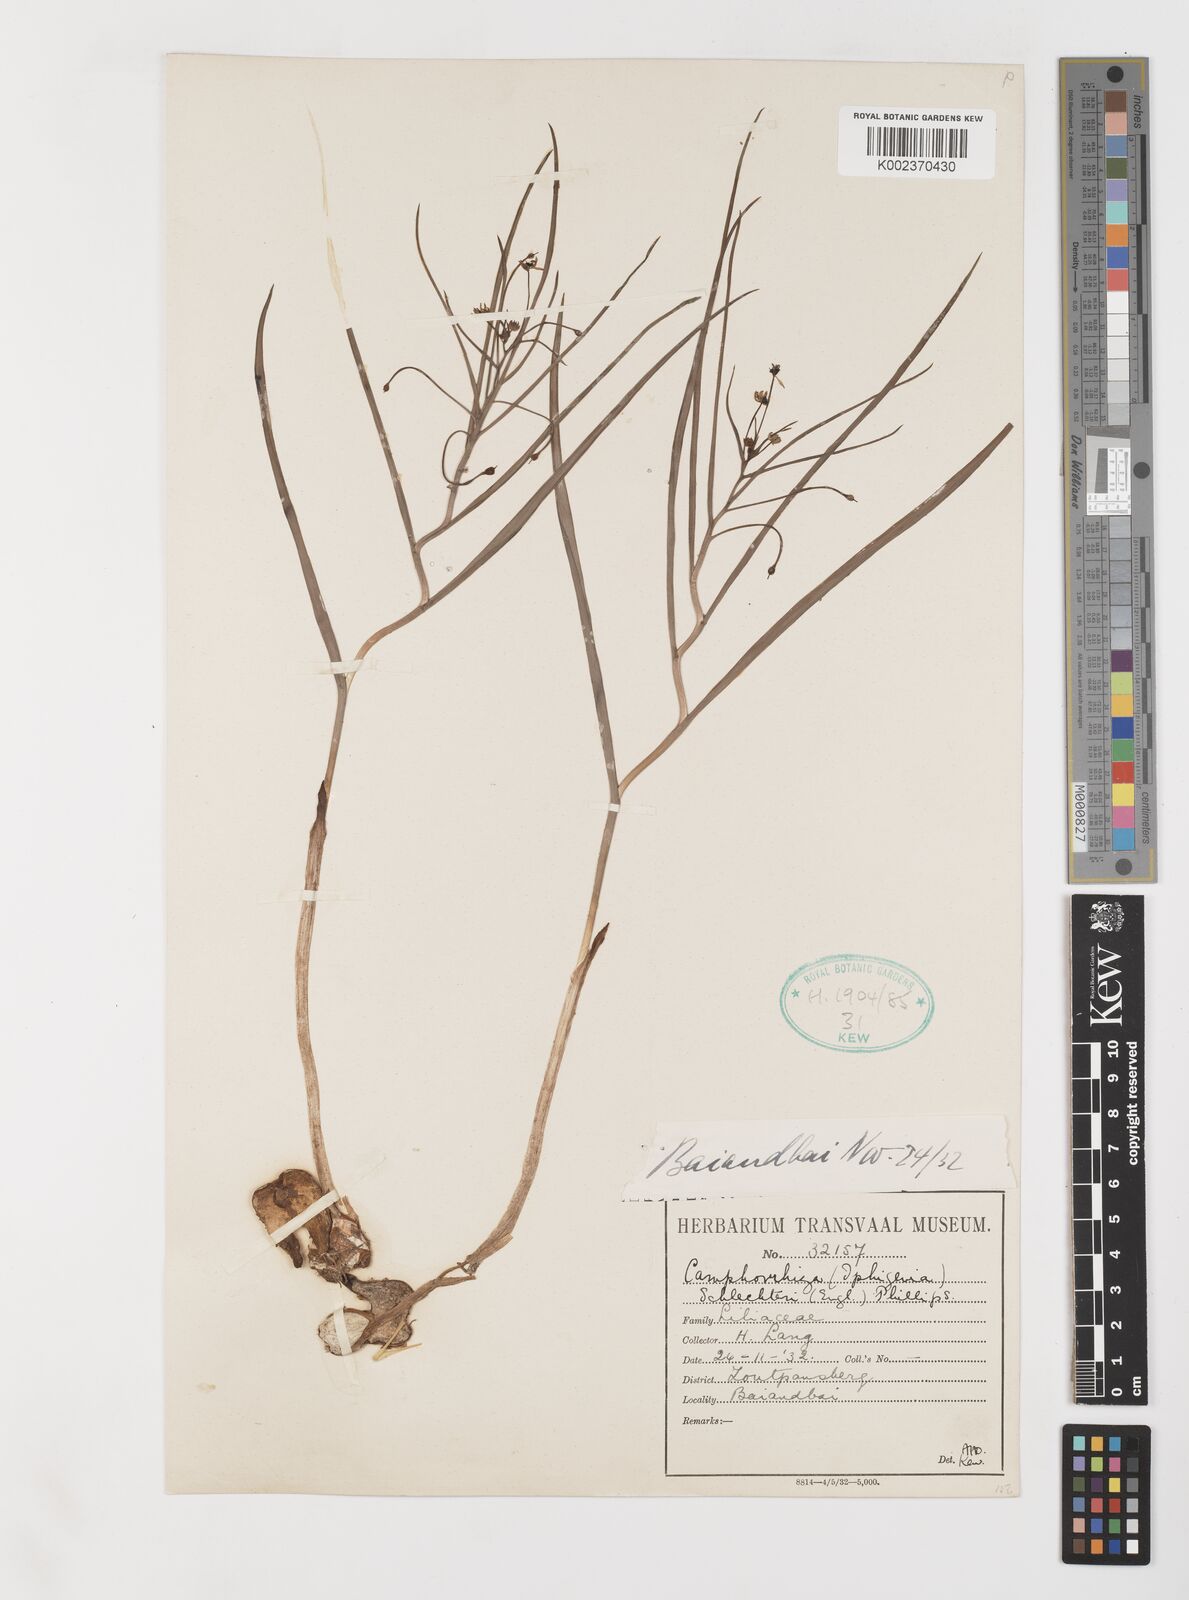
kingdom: Plantae
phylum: Tracheophyta
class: Liliopsida
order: Liliales
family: Colchicaceae
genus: Camptorrhiza
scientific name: Camptorrhiza strumosa
